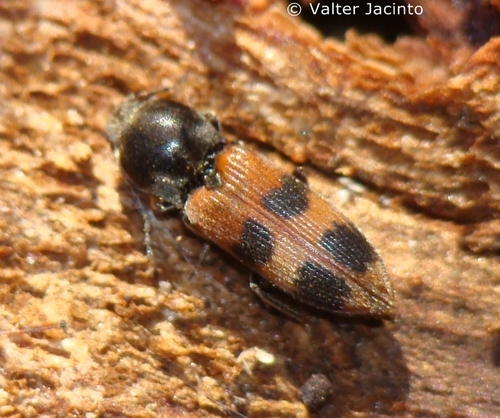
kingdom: Animalia
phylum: Arthropoda
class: Insecta
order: Coleoptera
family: Elateridae
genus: Cardiophorus
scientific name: Cardiophorus bipunctatus
